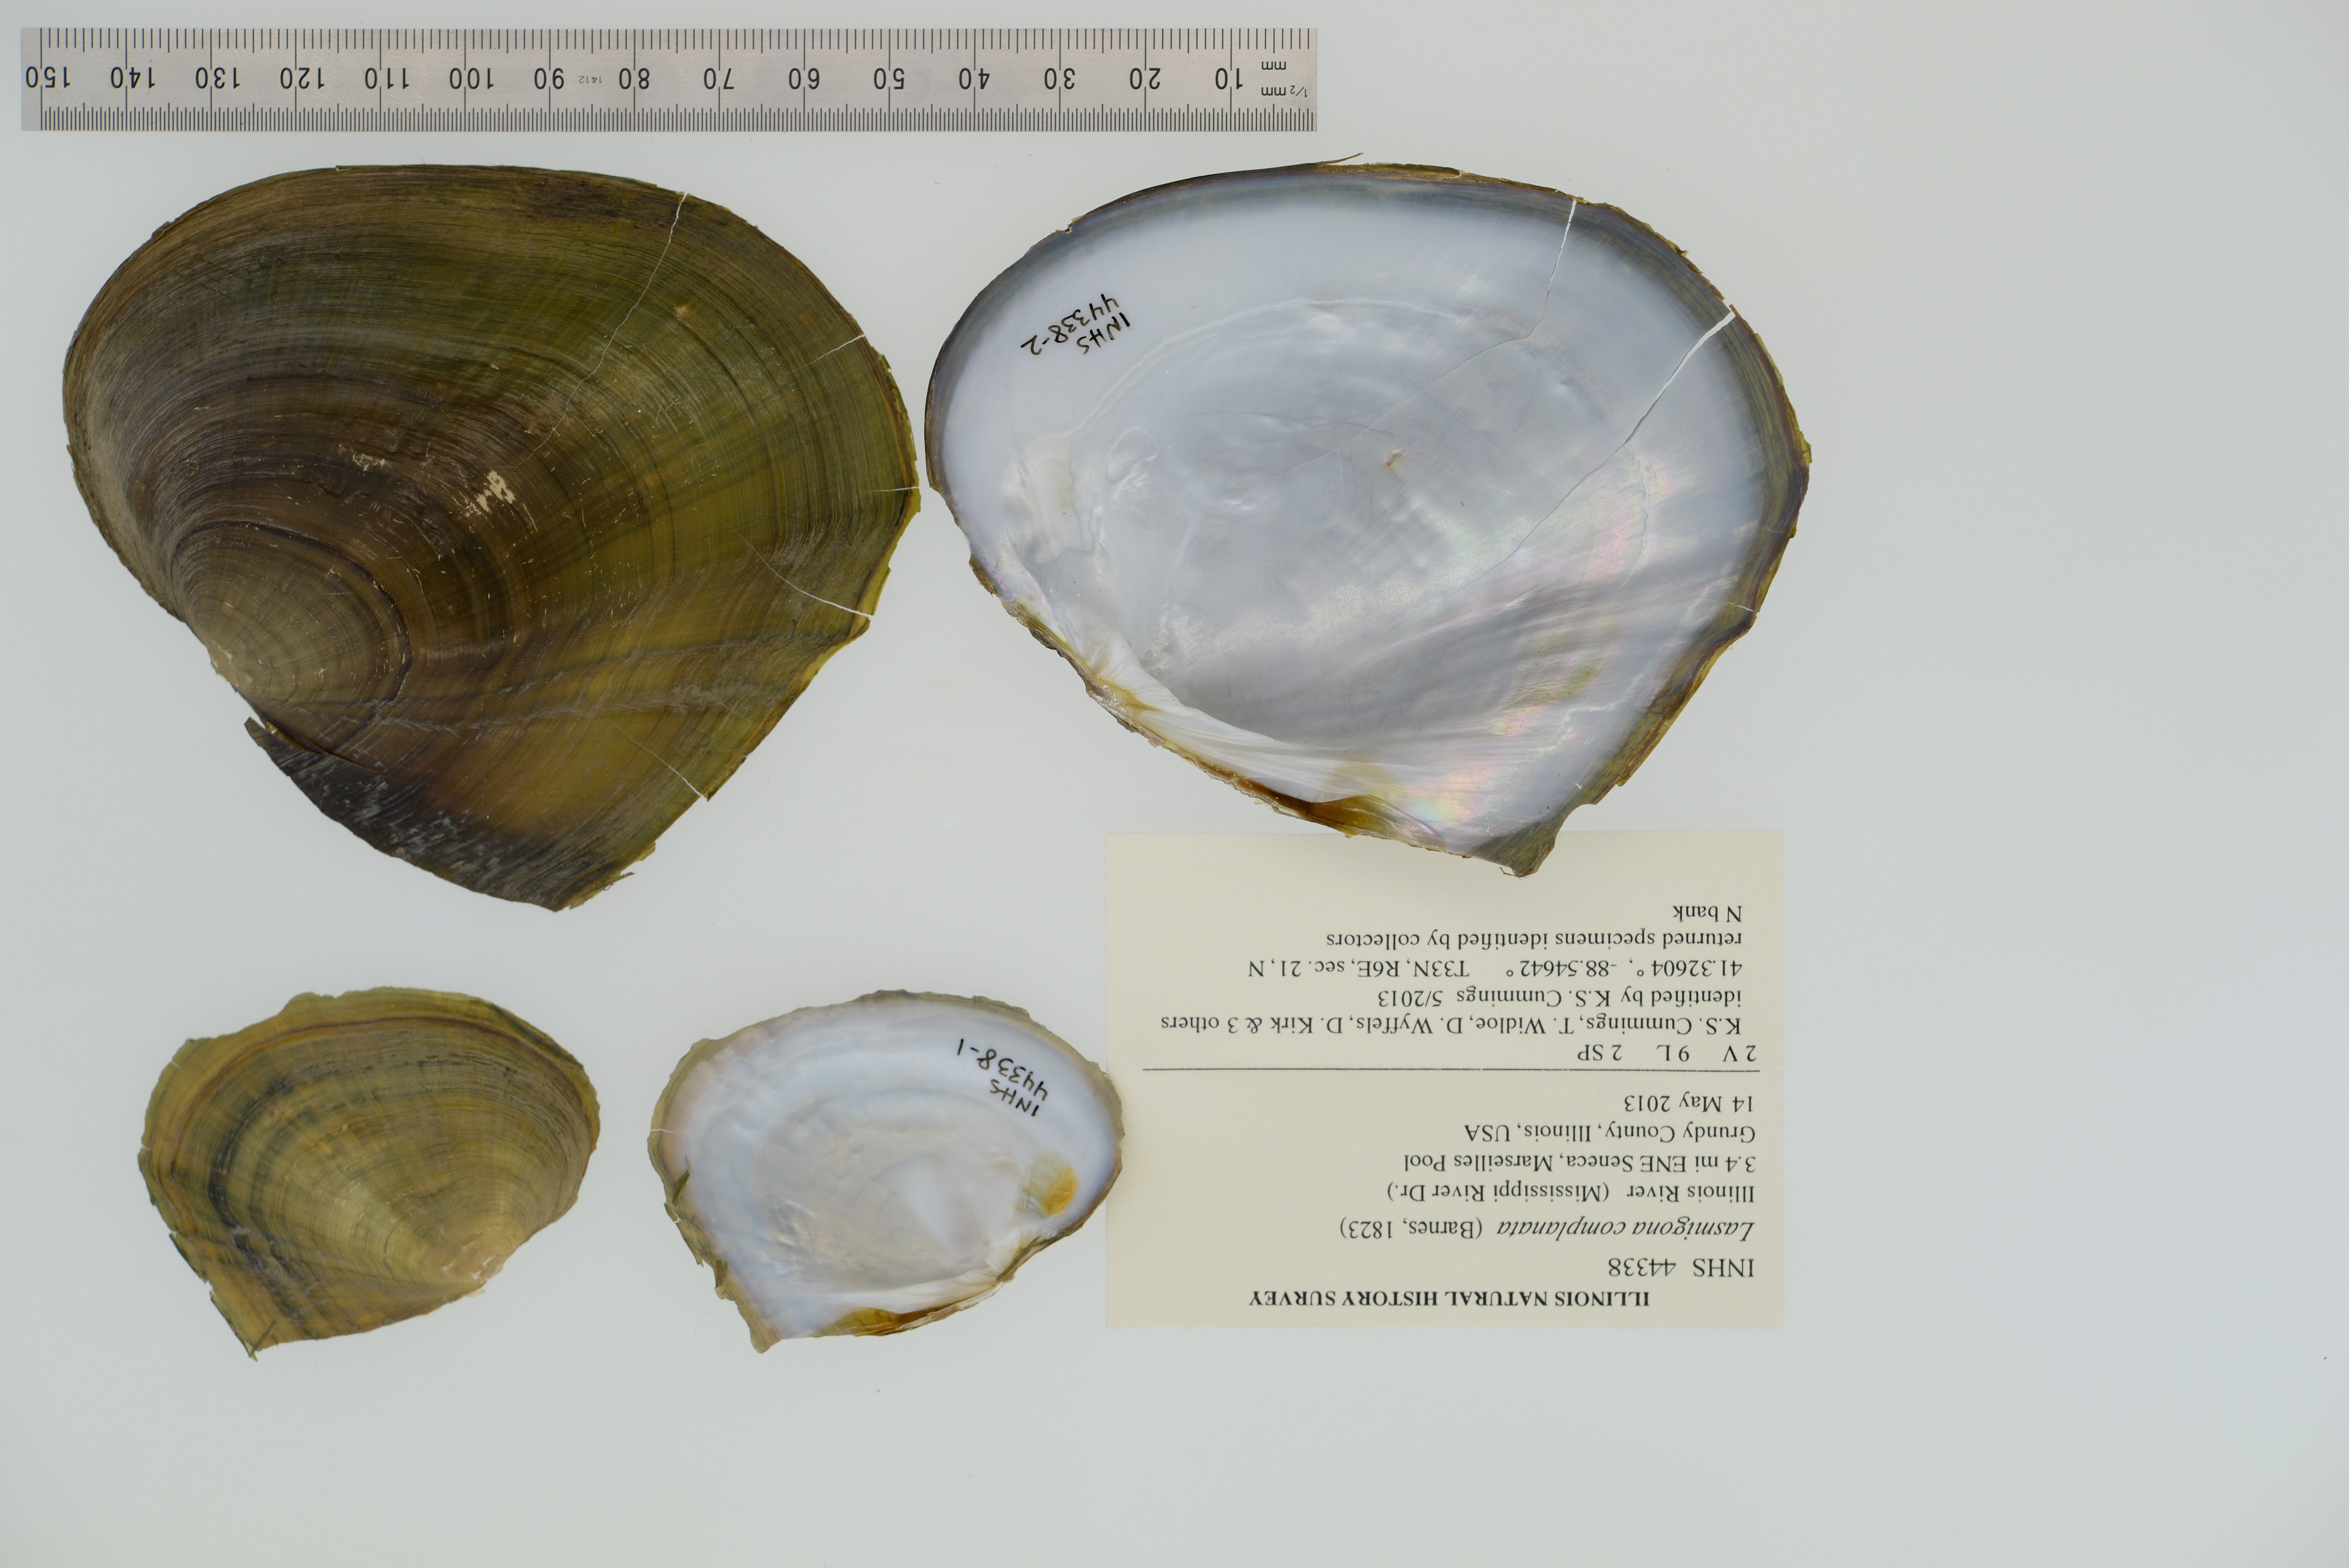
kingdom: Animalia
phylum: Mollusca
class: Bivalvia
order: Unionida
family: Unionidae
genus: Lasmigona
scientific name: Lasmigona complanata
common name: White heelsplitter
